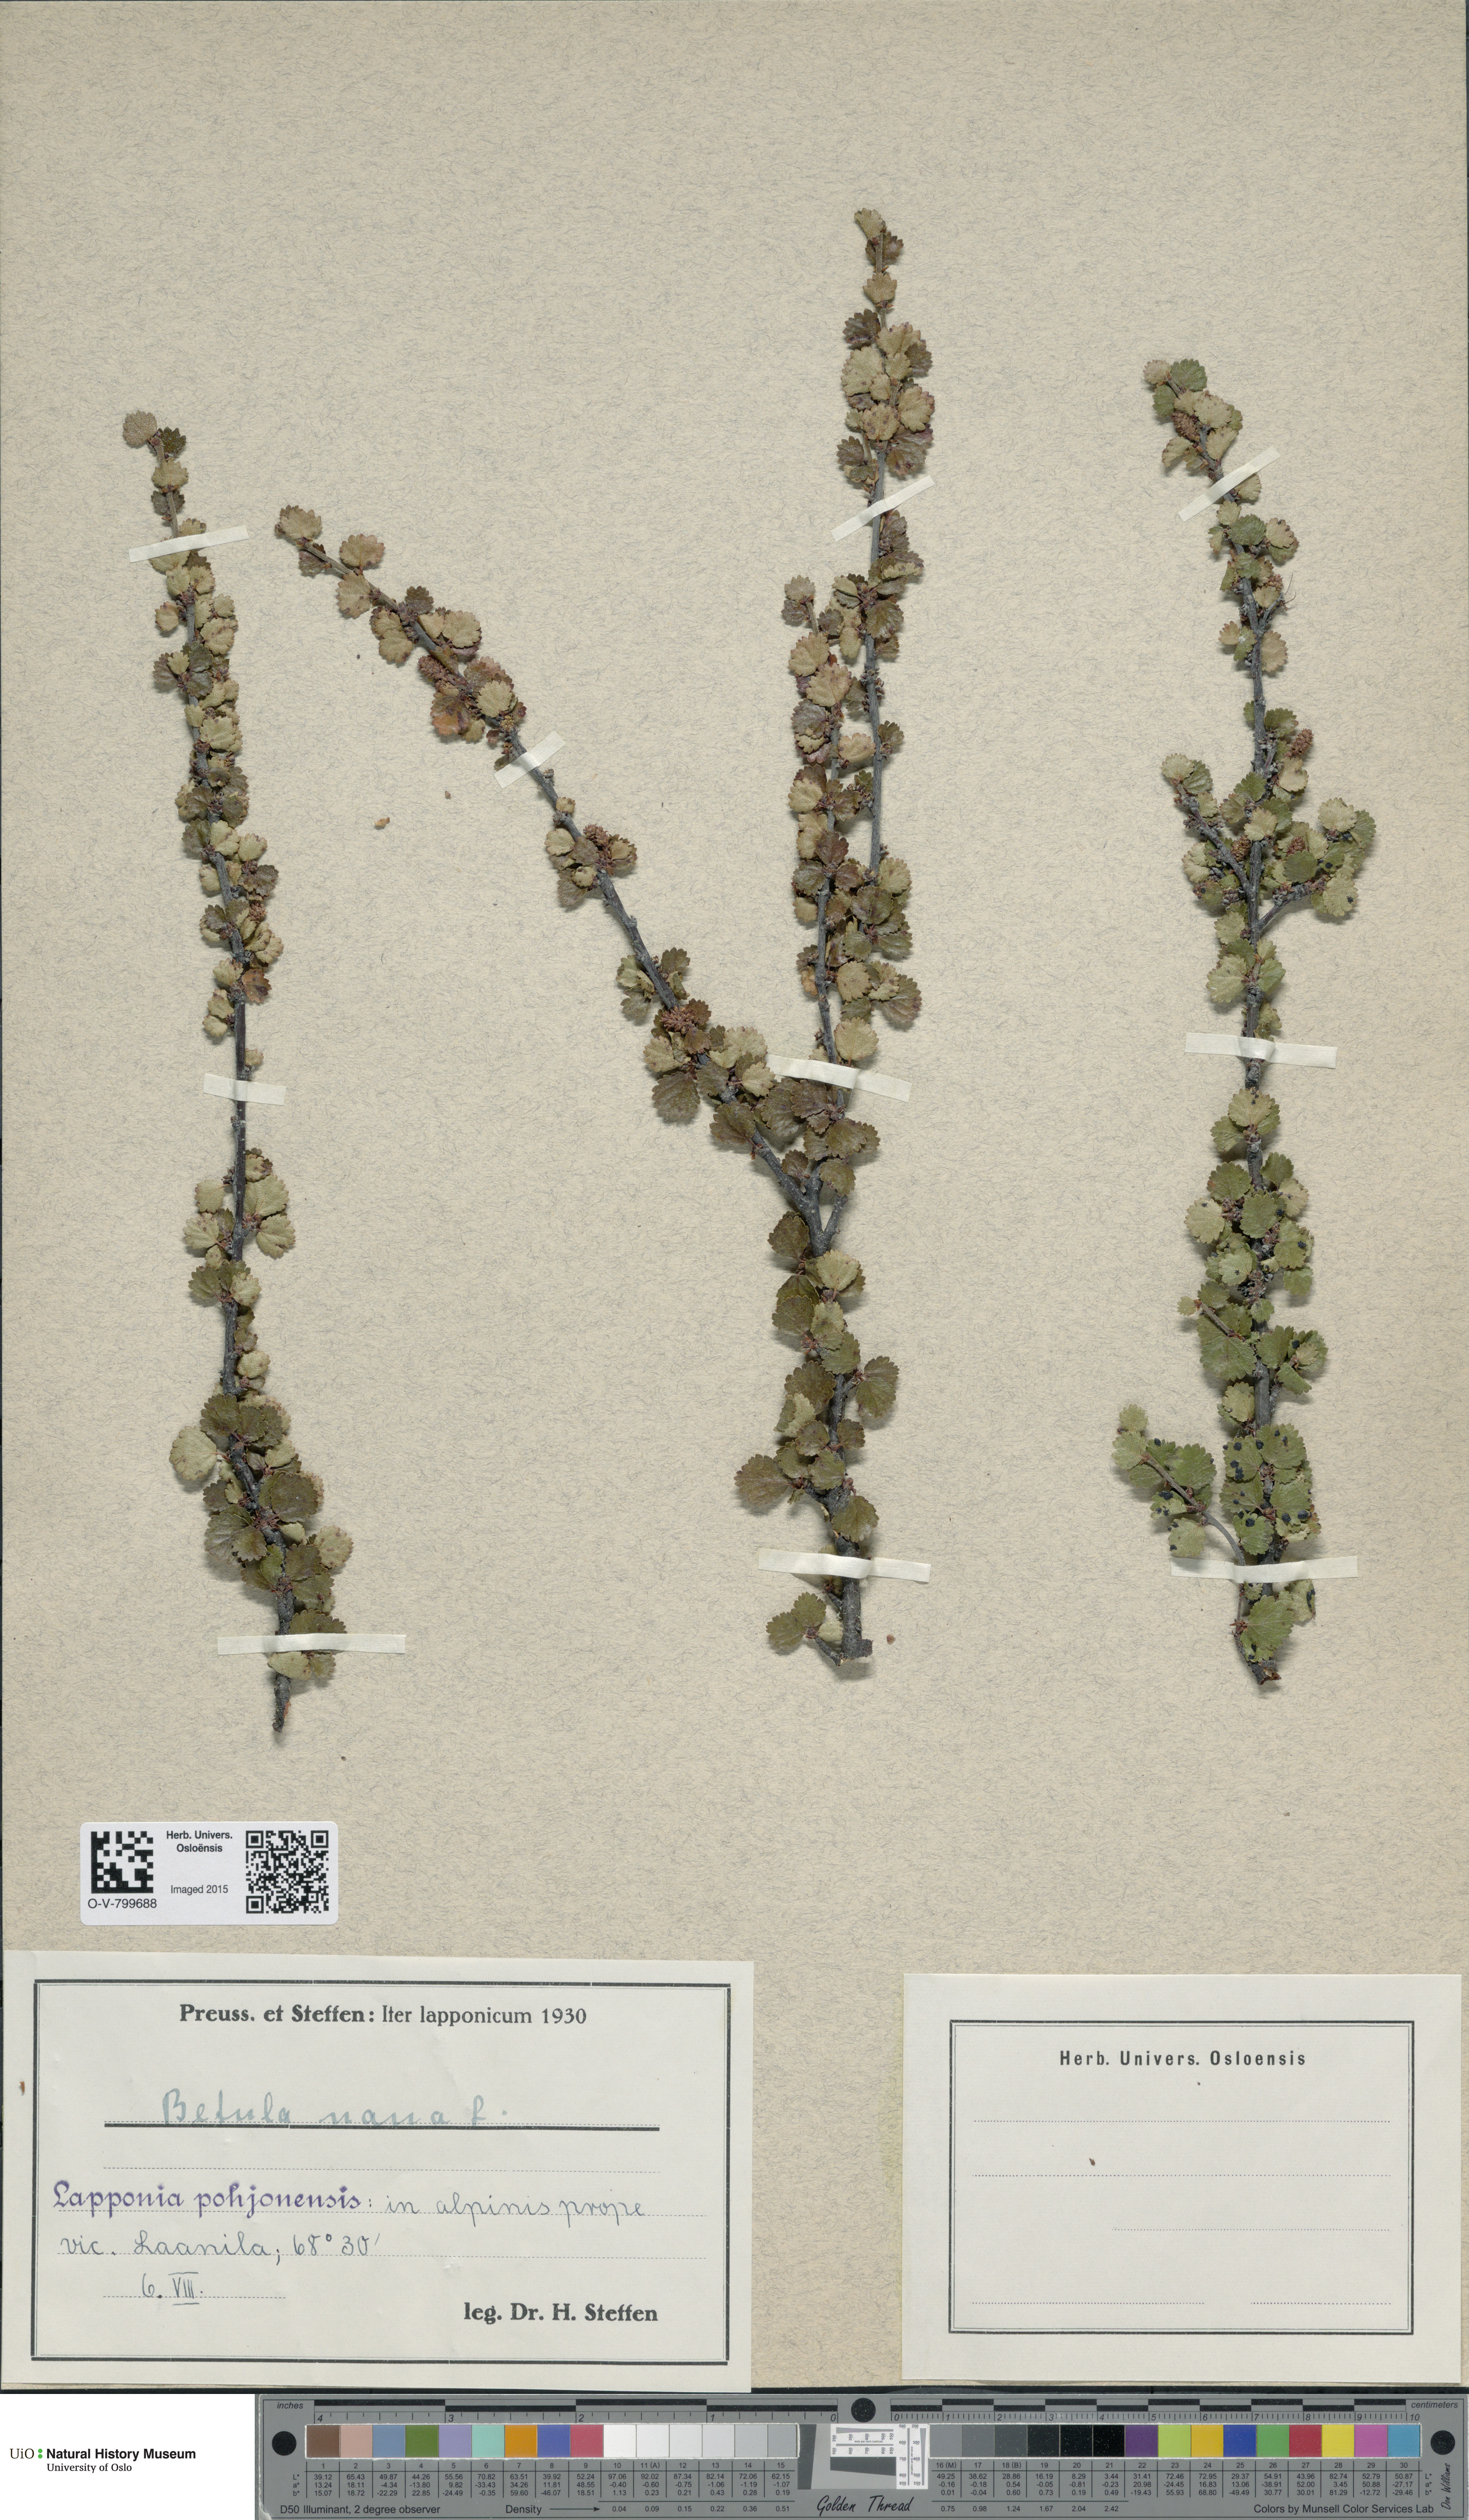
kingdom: Plantae
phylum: Tracheophyta
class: Magnoliopsida
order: Fagales
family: Betulaceae
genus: Betula
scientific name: Betula nana
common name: Arctic dwarf birch
